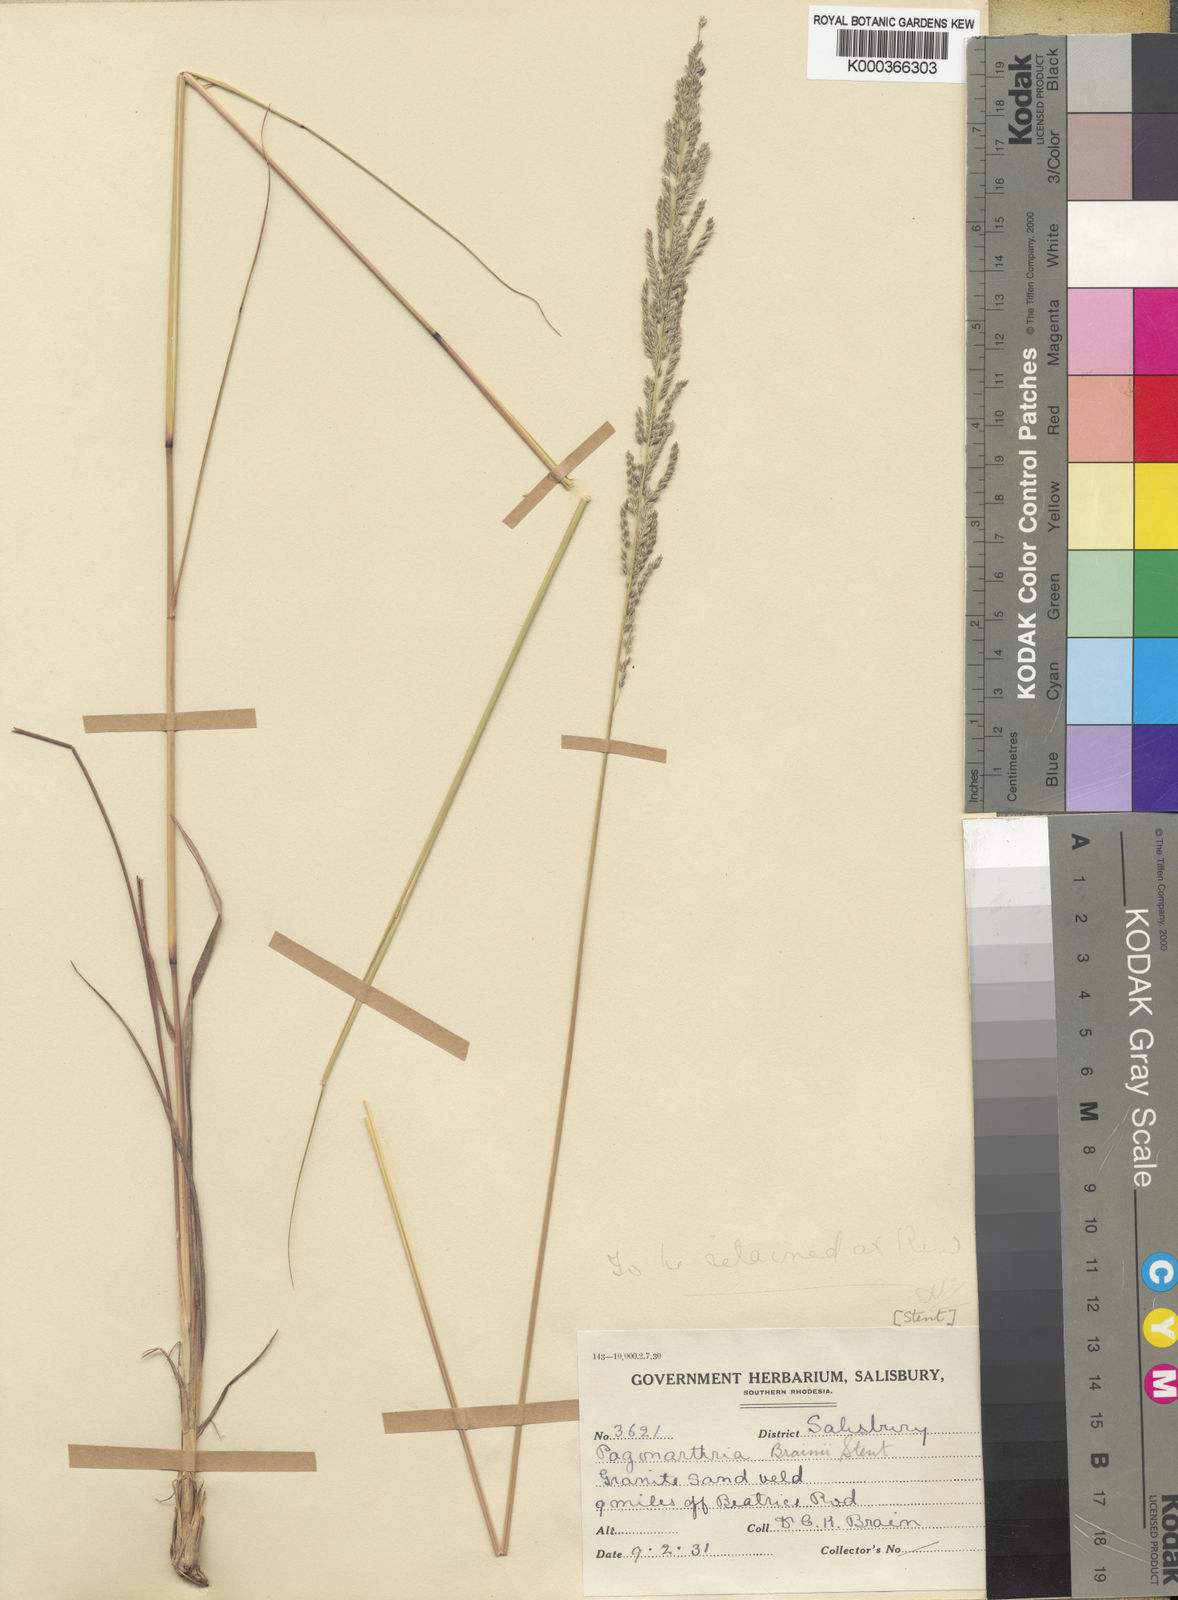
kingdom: Plantae
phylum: Tracheophyta
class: Liliopsida
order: Poales
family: Poaceae
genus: Eragrostis
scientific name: Eragrostis brainii
